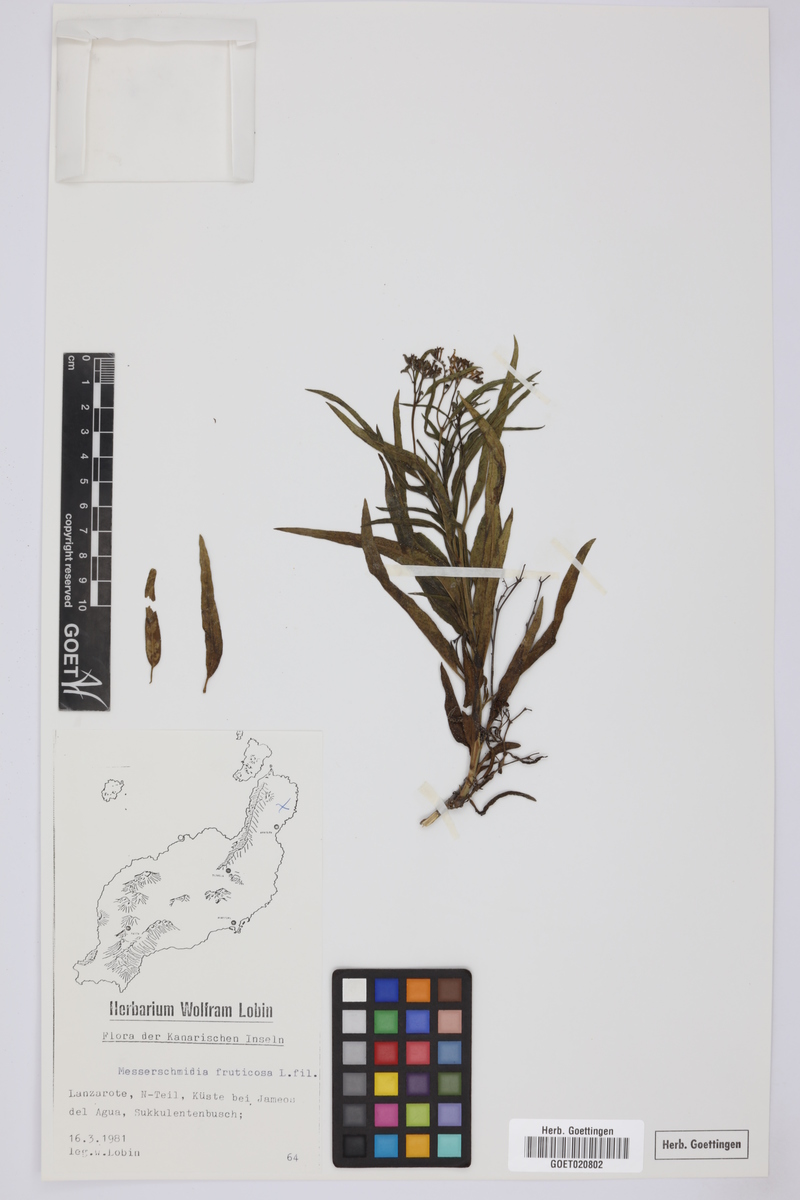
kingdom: Plantae
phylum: Tracheophyta
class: Magnoliopsida
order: Boraginales
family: Heliotropiaceae
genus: Heliotropium
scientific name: Heliotropium messerschmidioides
